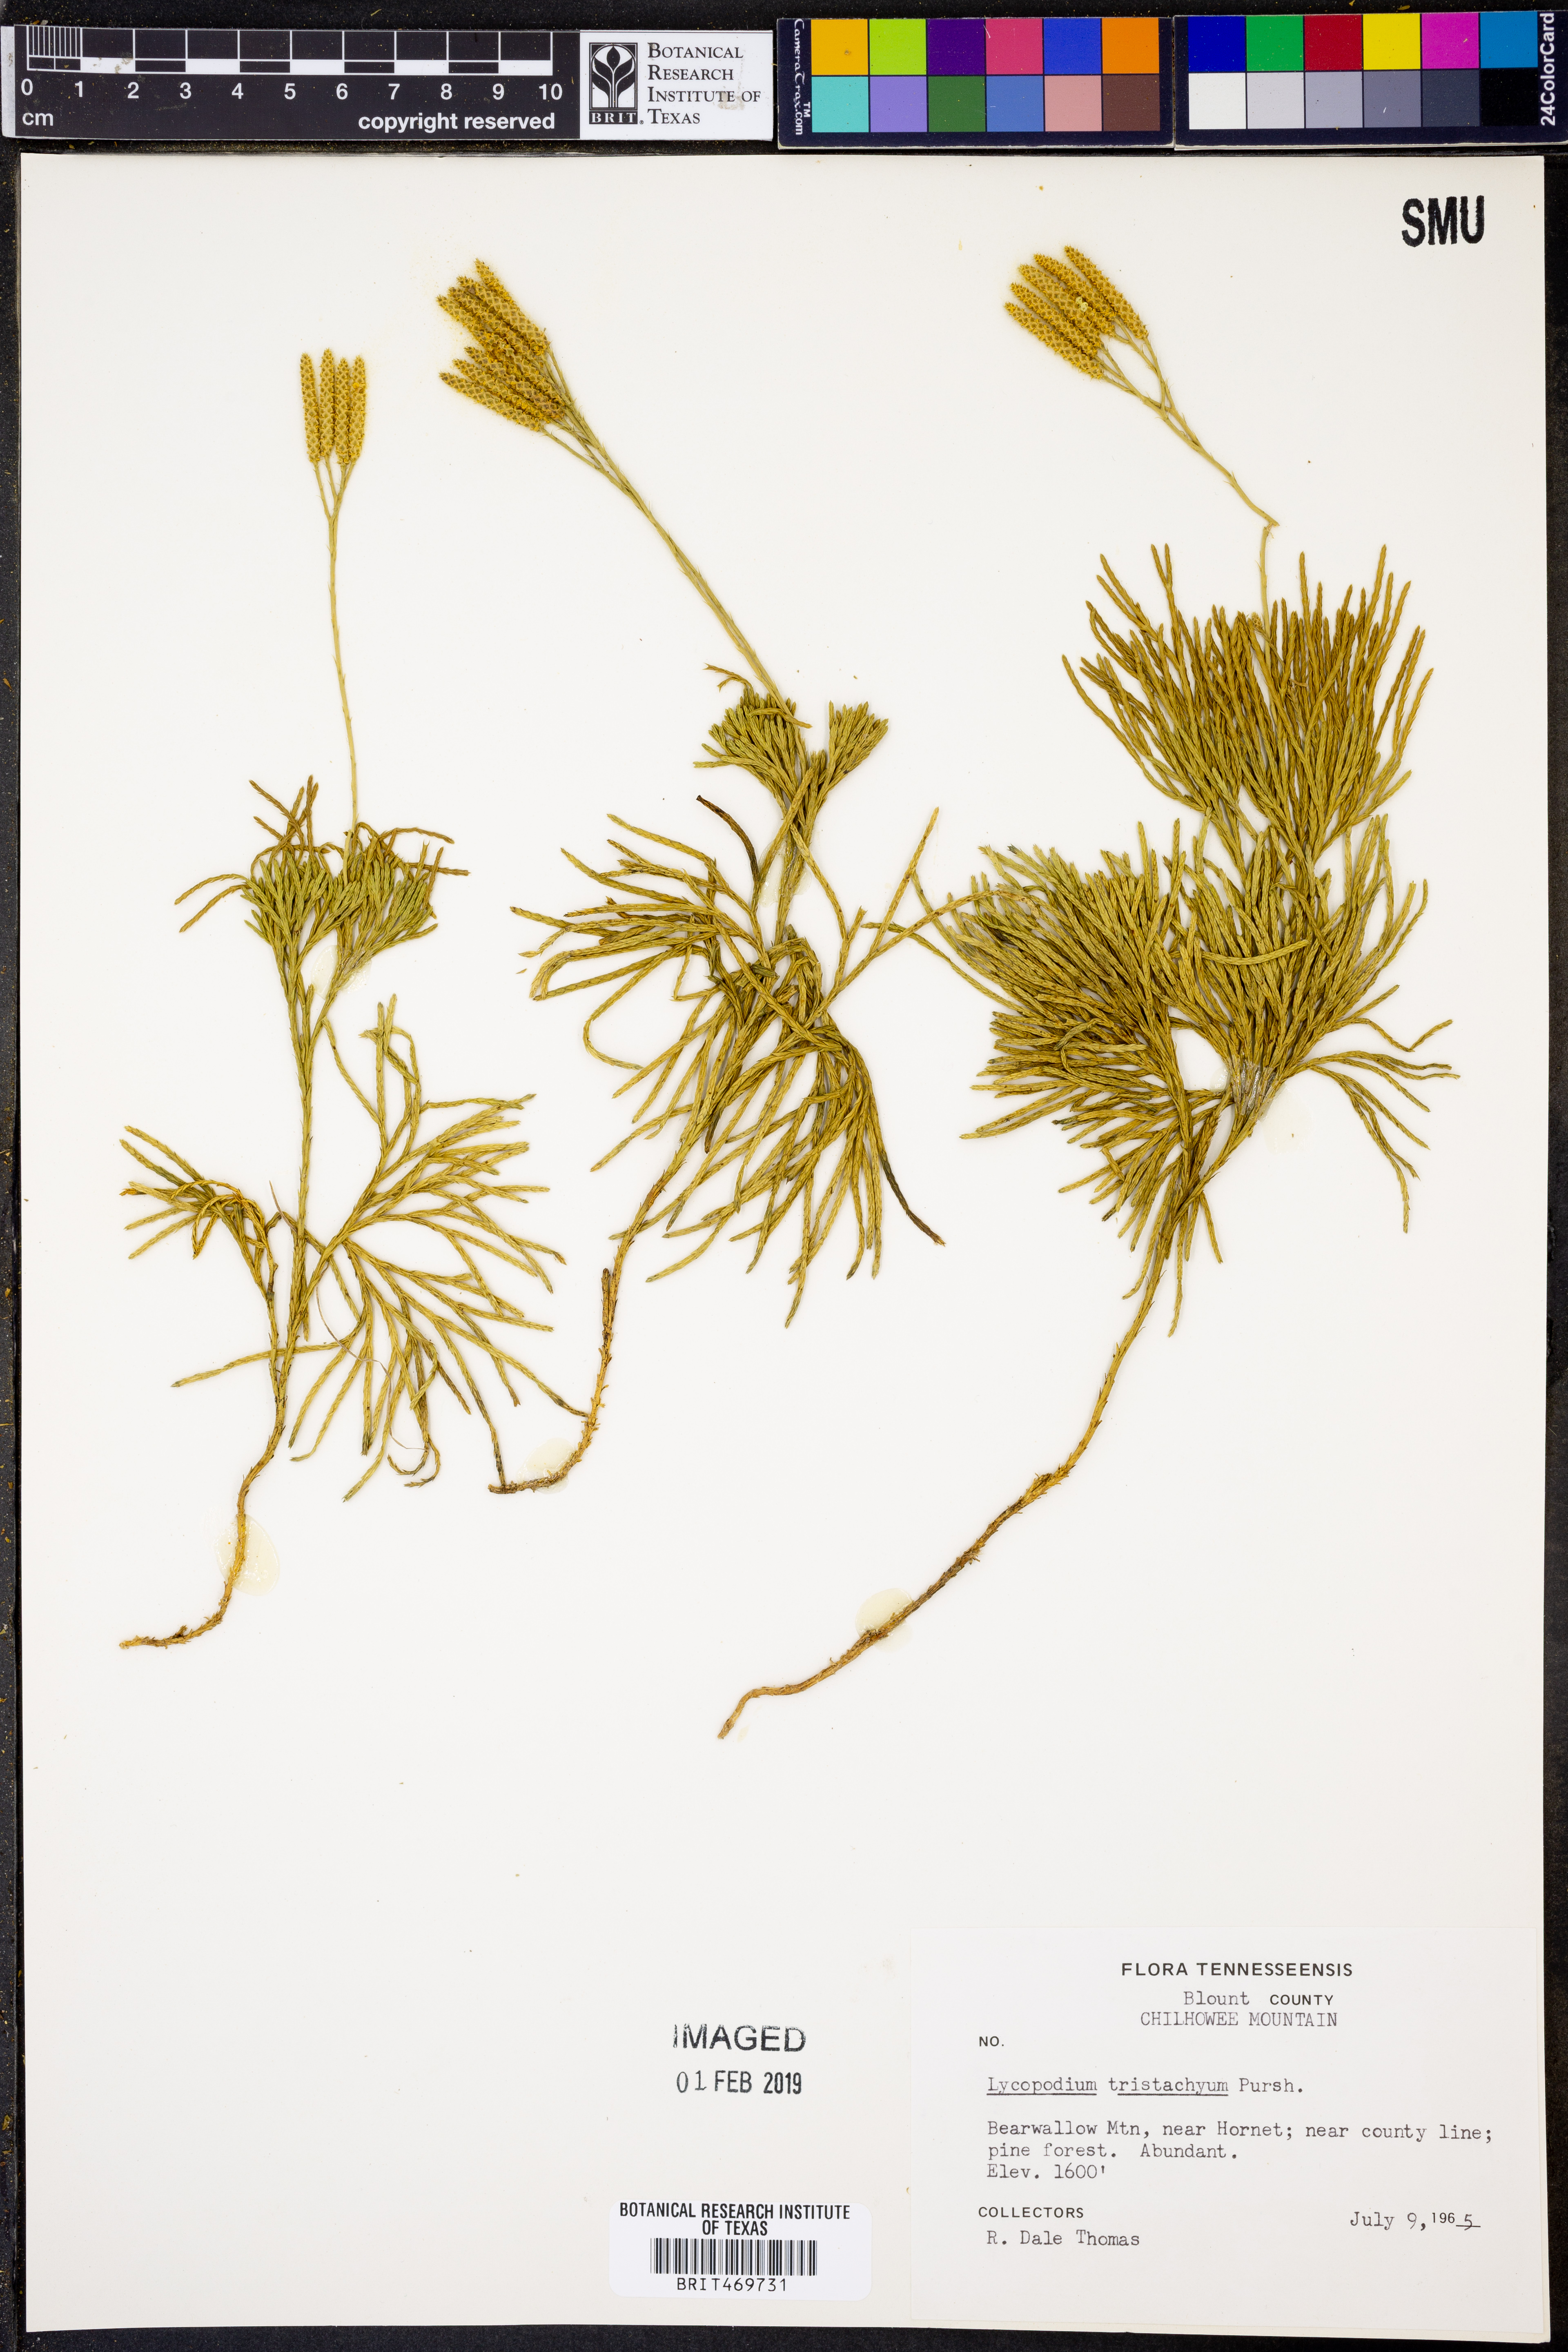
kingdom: Plantae
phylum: Tracheophyta
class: Lycopodiopsida
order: Lycopodiales
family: Lycopodiaceae
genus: Diphasiastrum
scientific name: Diphasiastrum tristachyum
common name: Blue ground-cedar
